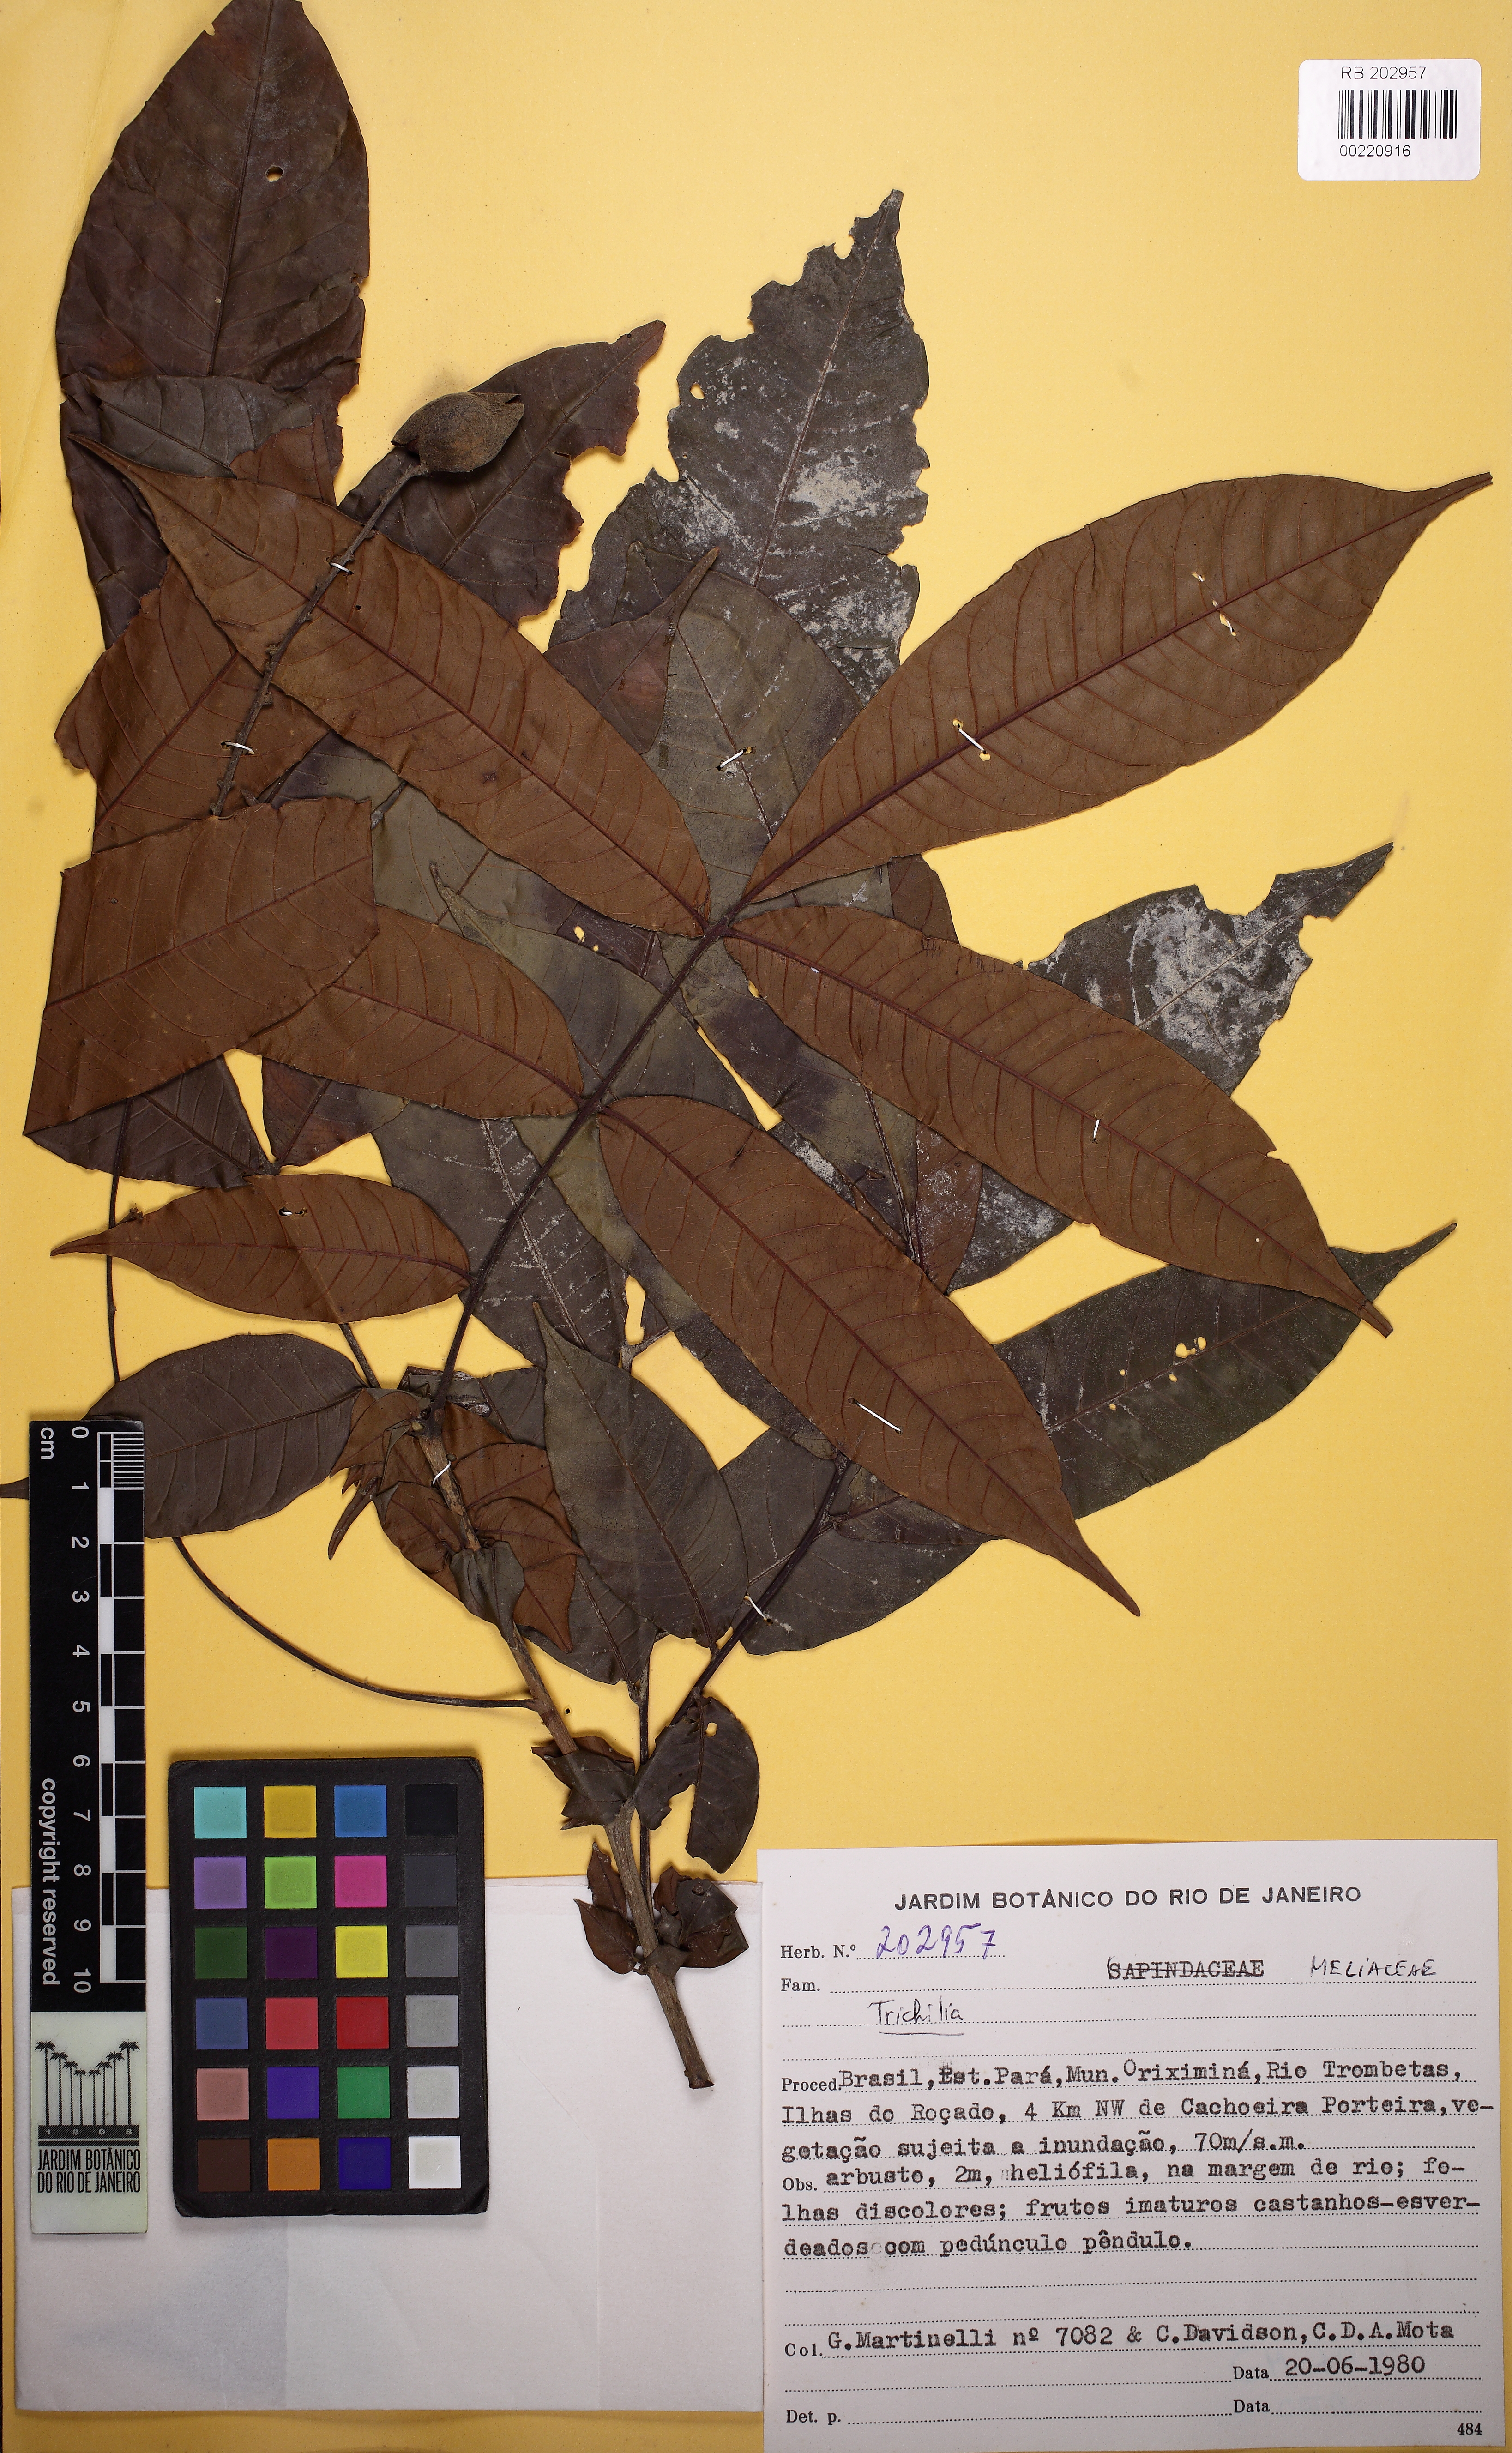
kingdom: Plantae
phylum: Tracheophyta
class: Magnoliopsida
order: Sapindales
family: Meliaceae
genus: Trichilia
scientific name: Trichilia
